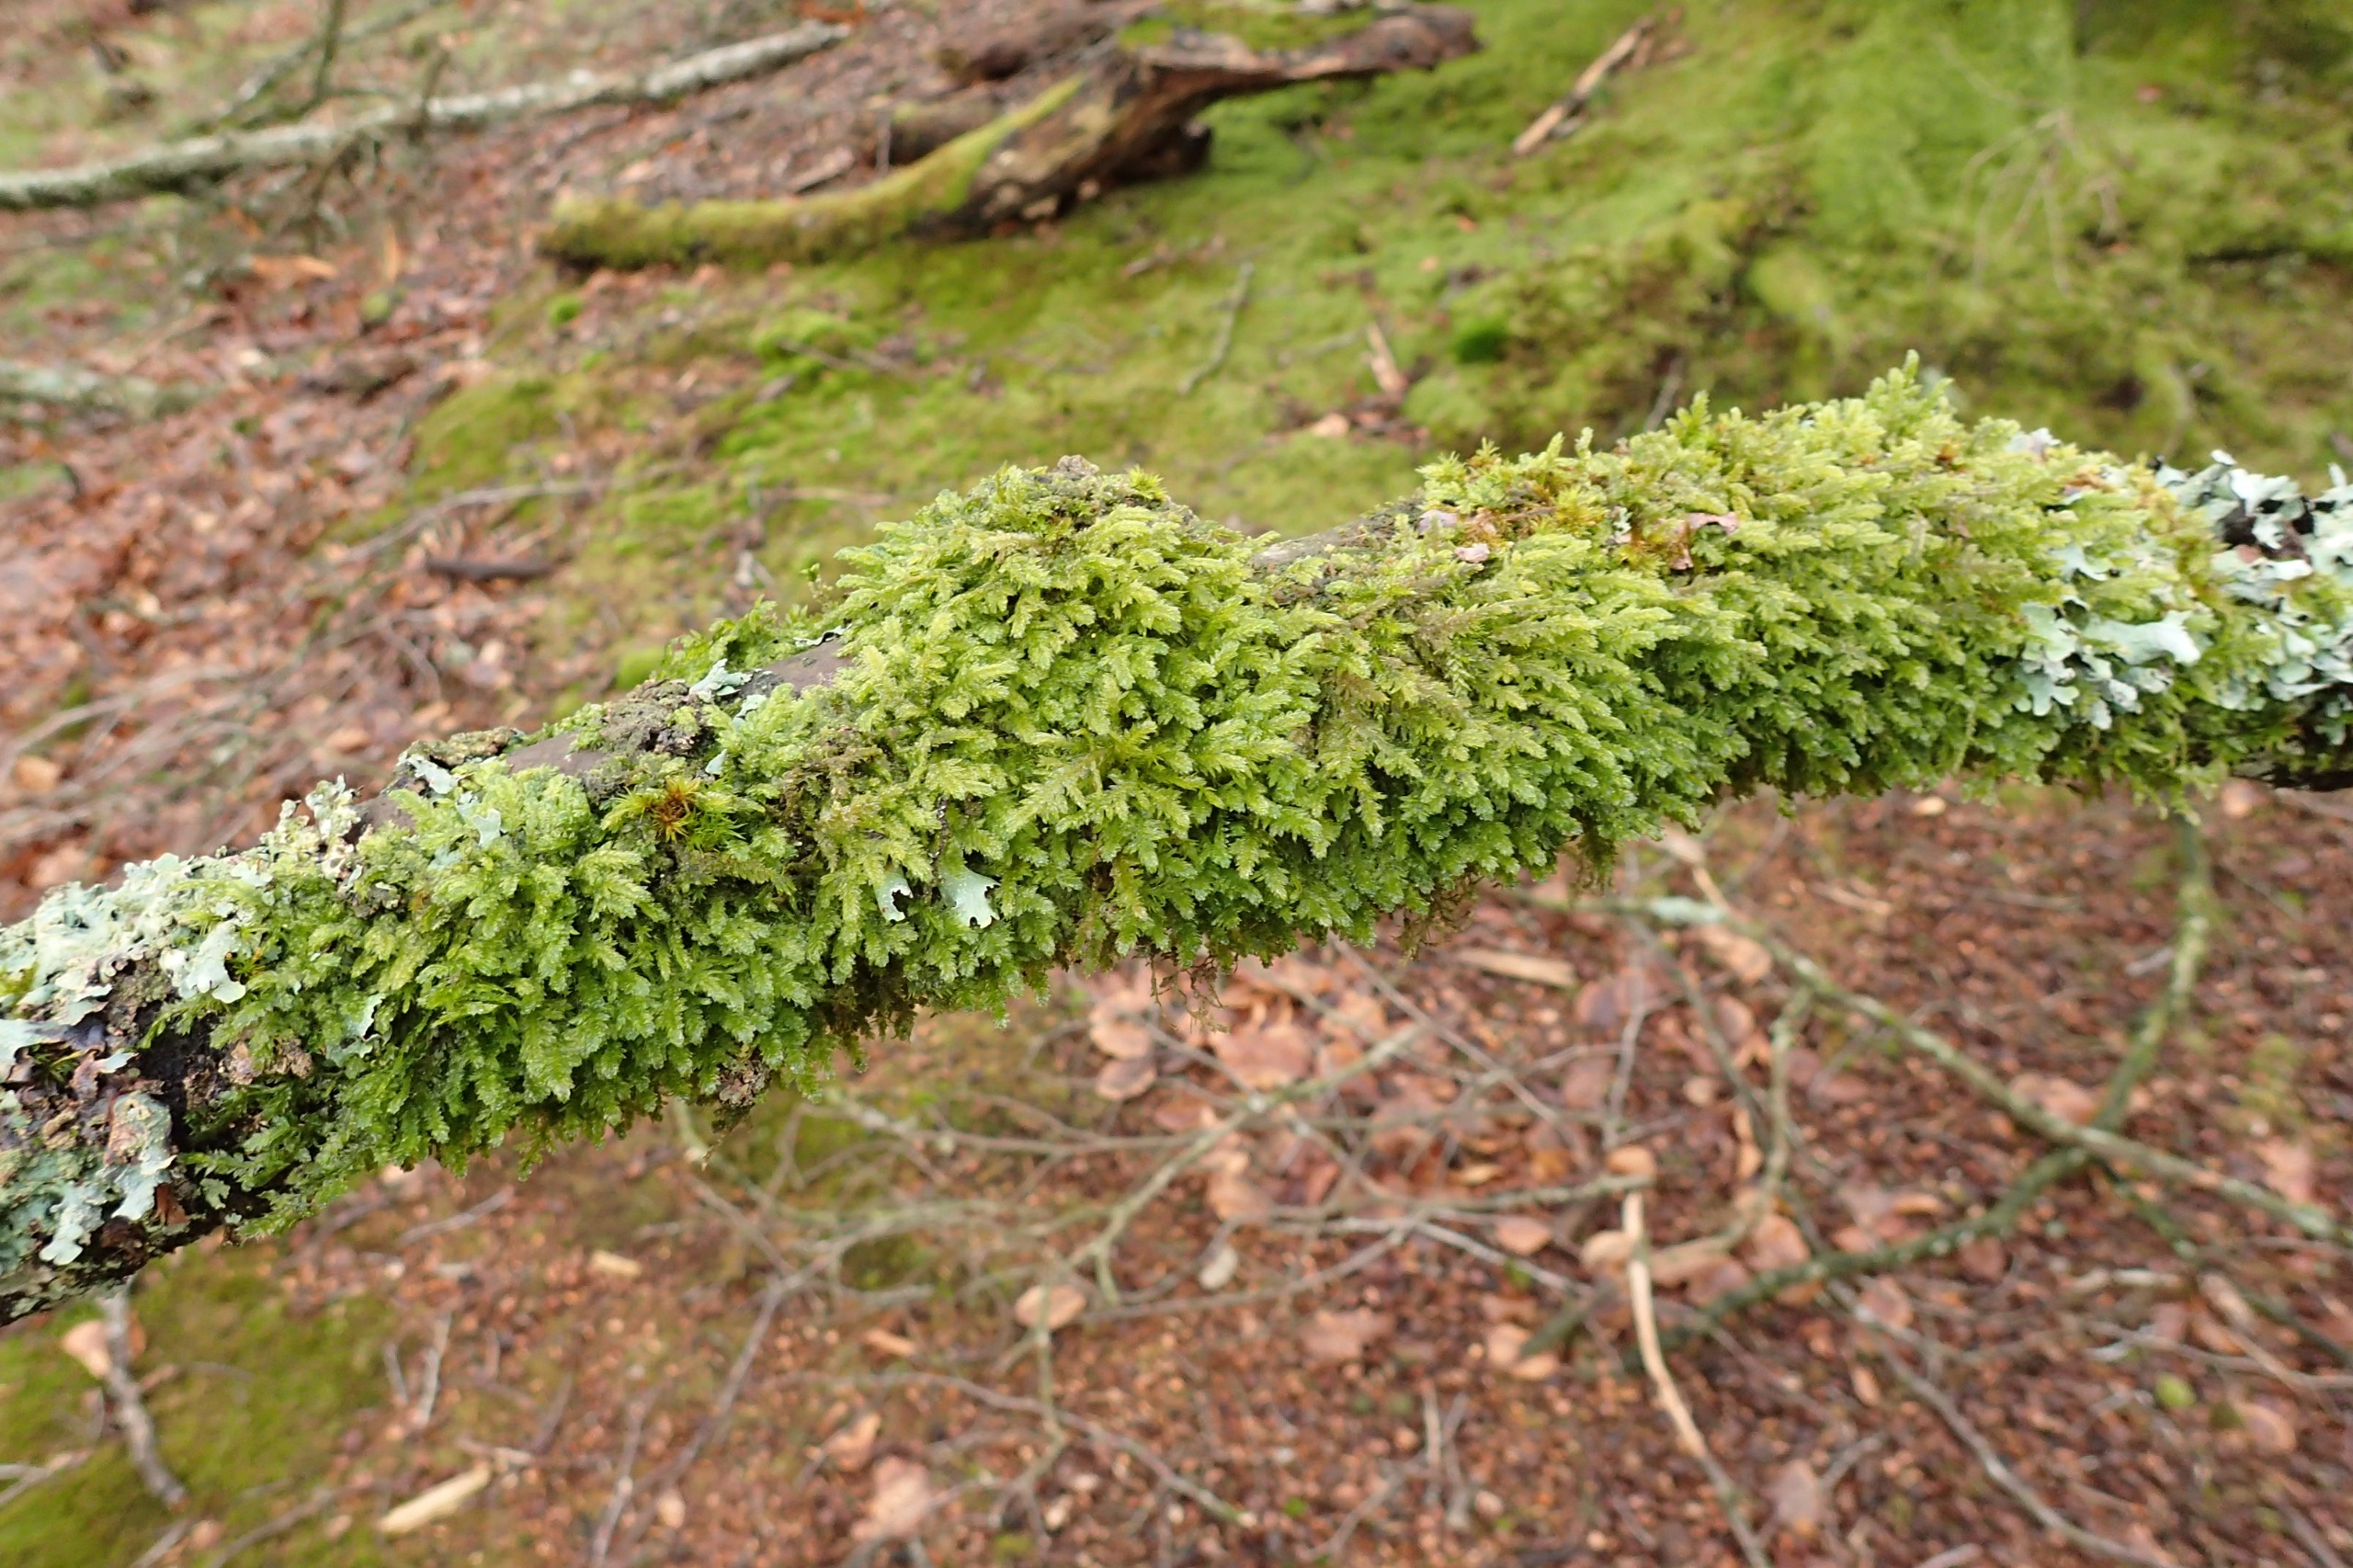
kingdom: Plantae
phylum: Bryophyta
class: Bryopsida
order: Hypnales
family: Neckeraceae
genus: Neckera
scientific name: Neckera pumila
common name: Lav fladmos
